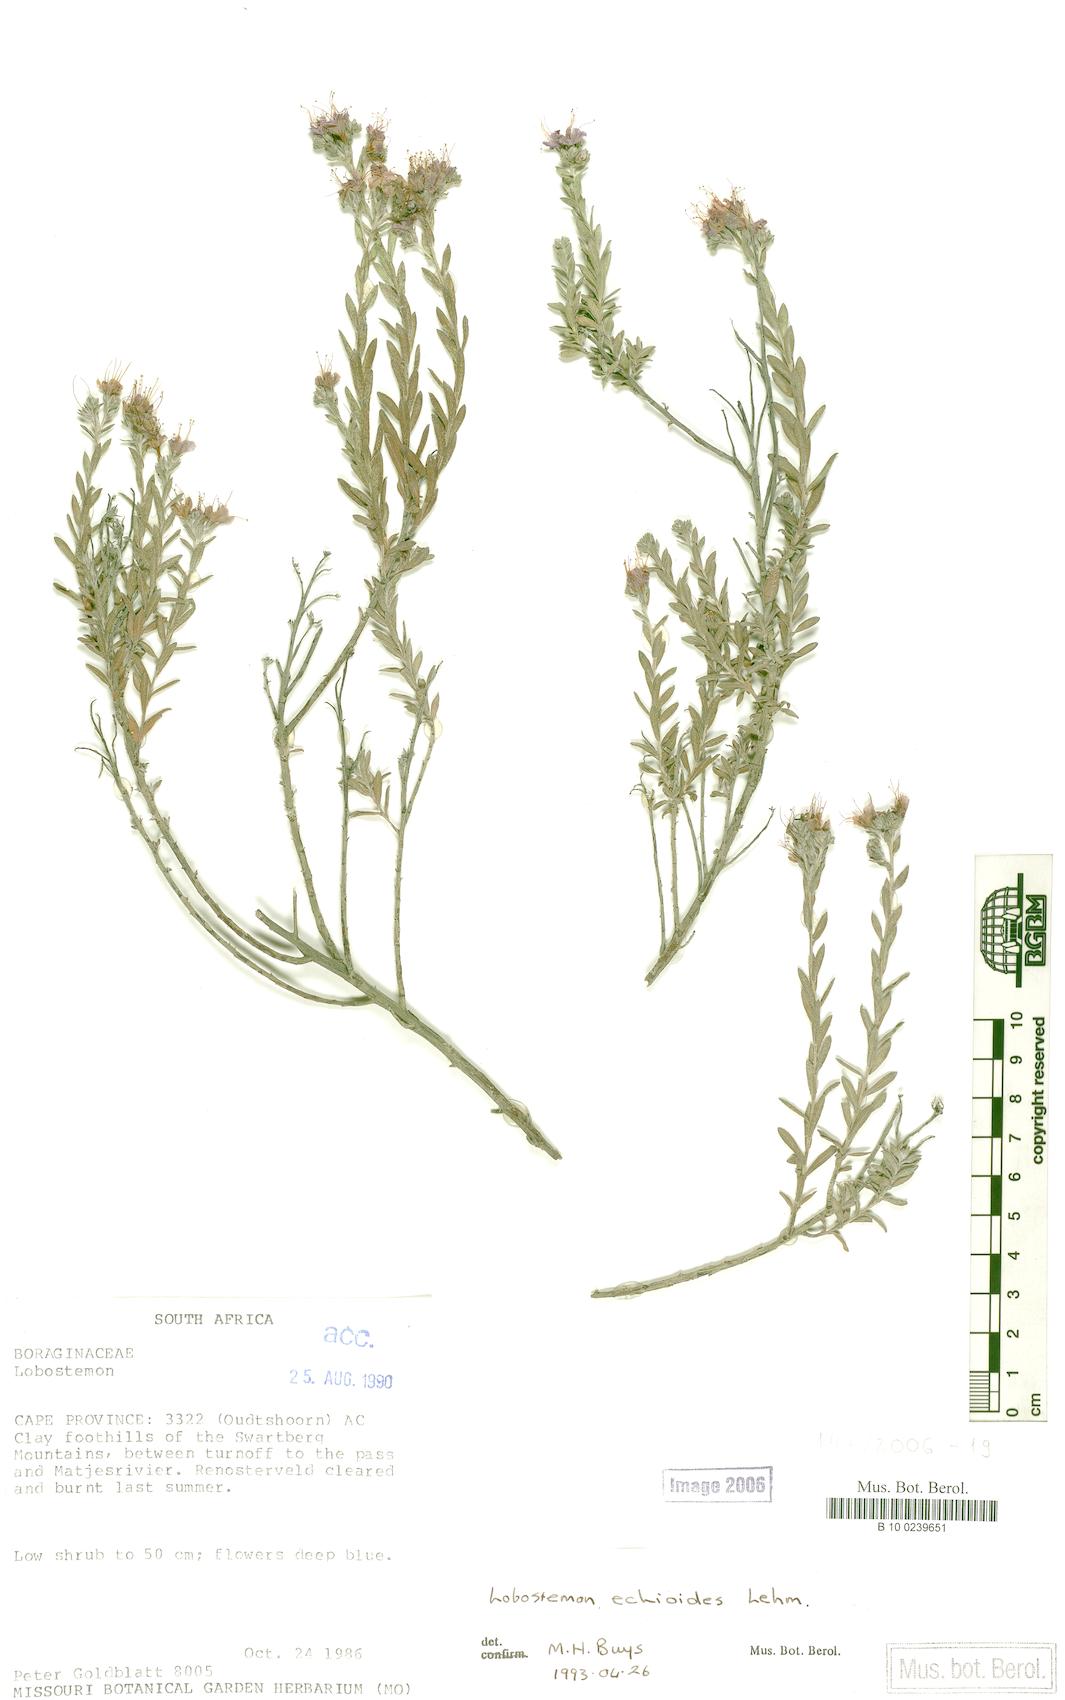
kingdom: Plantae
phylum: Tracheophyta
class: Magnoliopsida
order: Boraginales
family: Boraginaceae
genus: Lobostemon
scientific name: Lobostemon echioides
